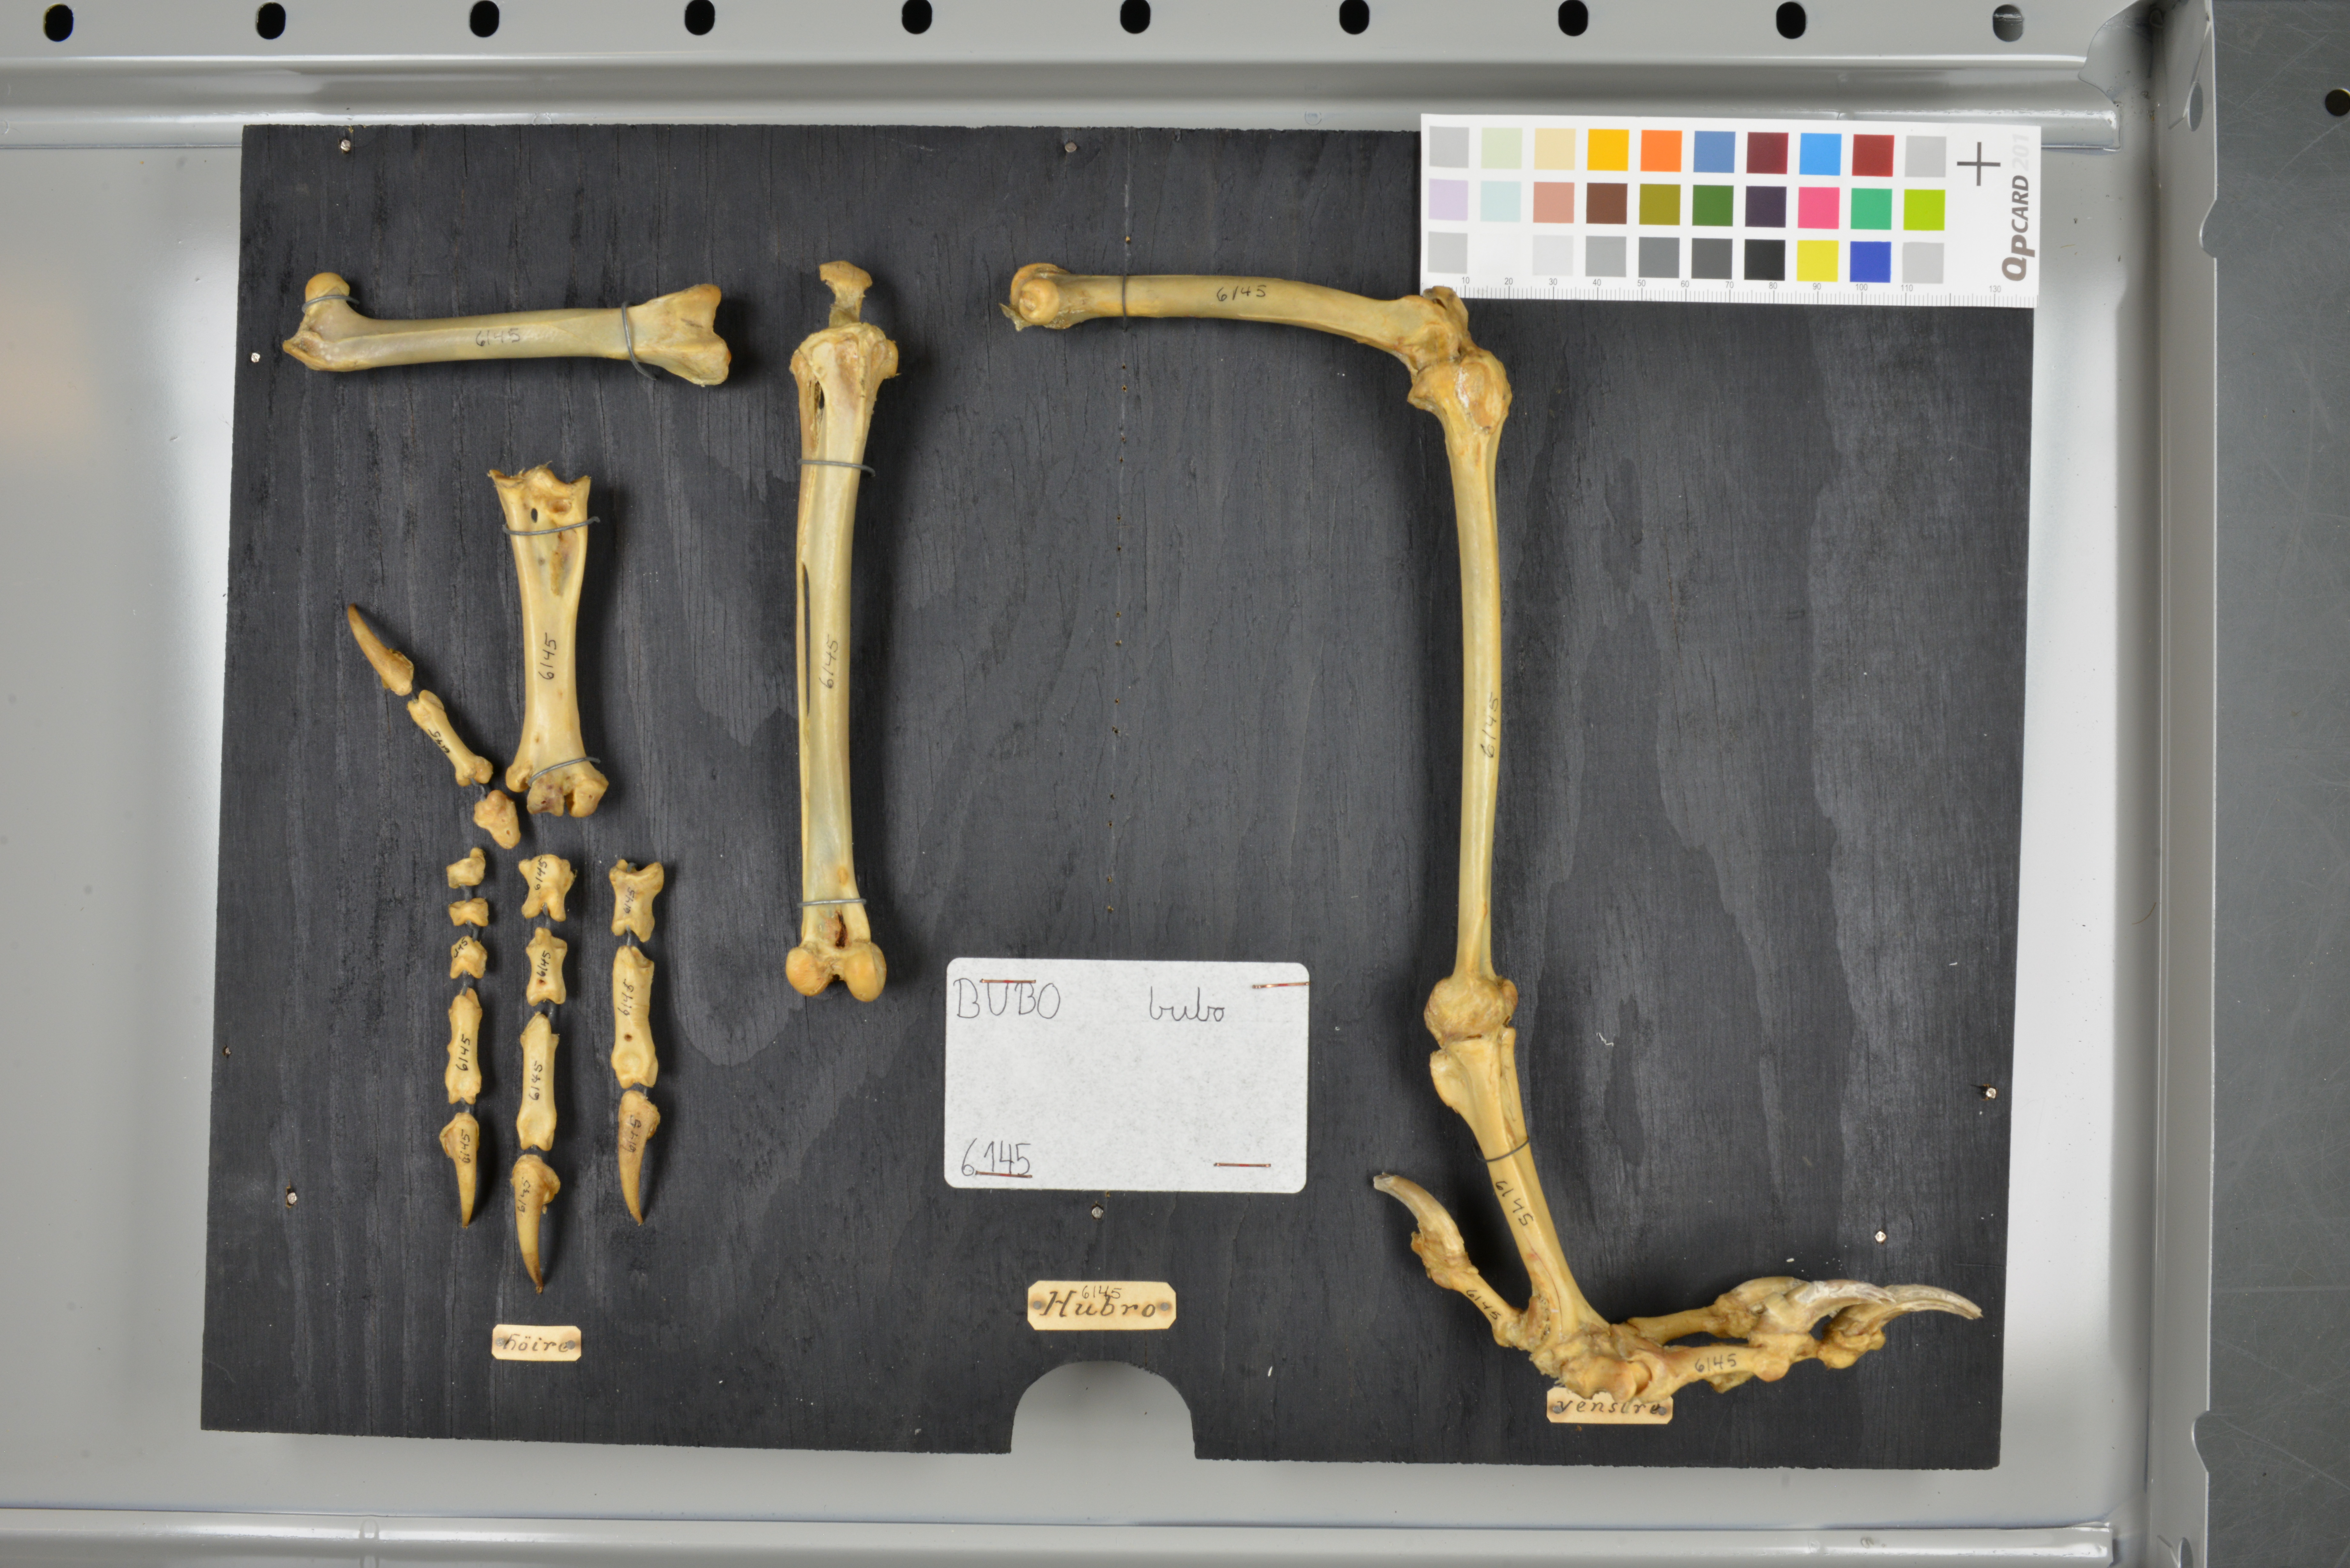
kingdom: Animalia
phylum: Chordata
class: Aves
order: Strigiformes
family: Strigidae
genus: Bubo
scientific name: Bubo bubo
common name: Eurasian eagle-owl
